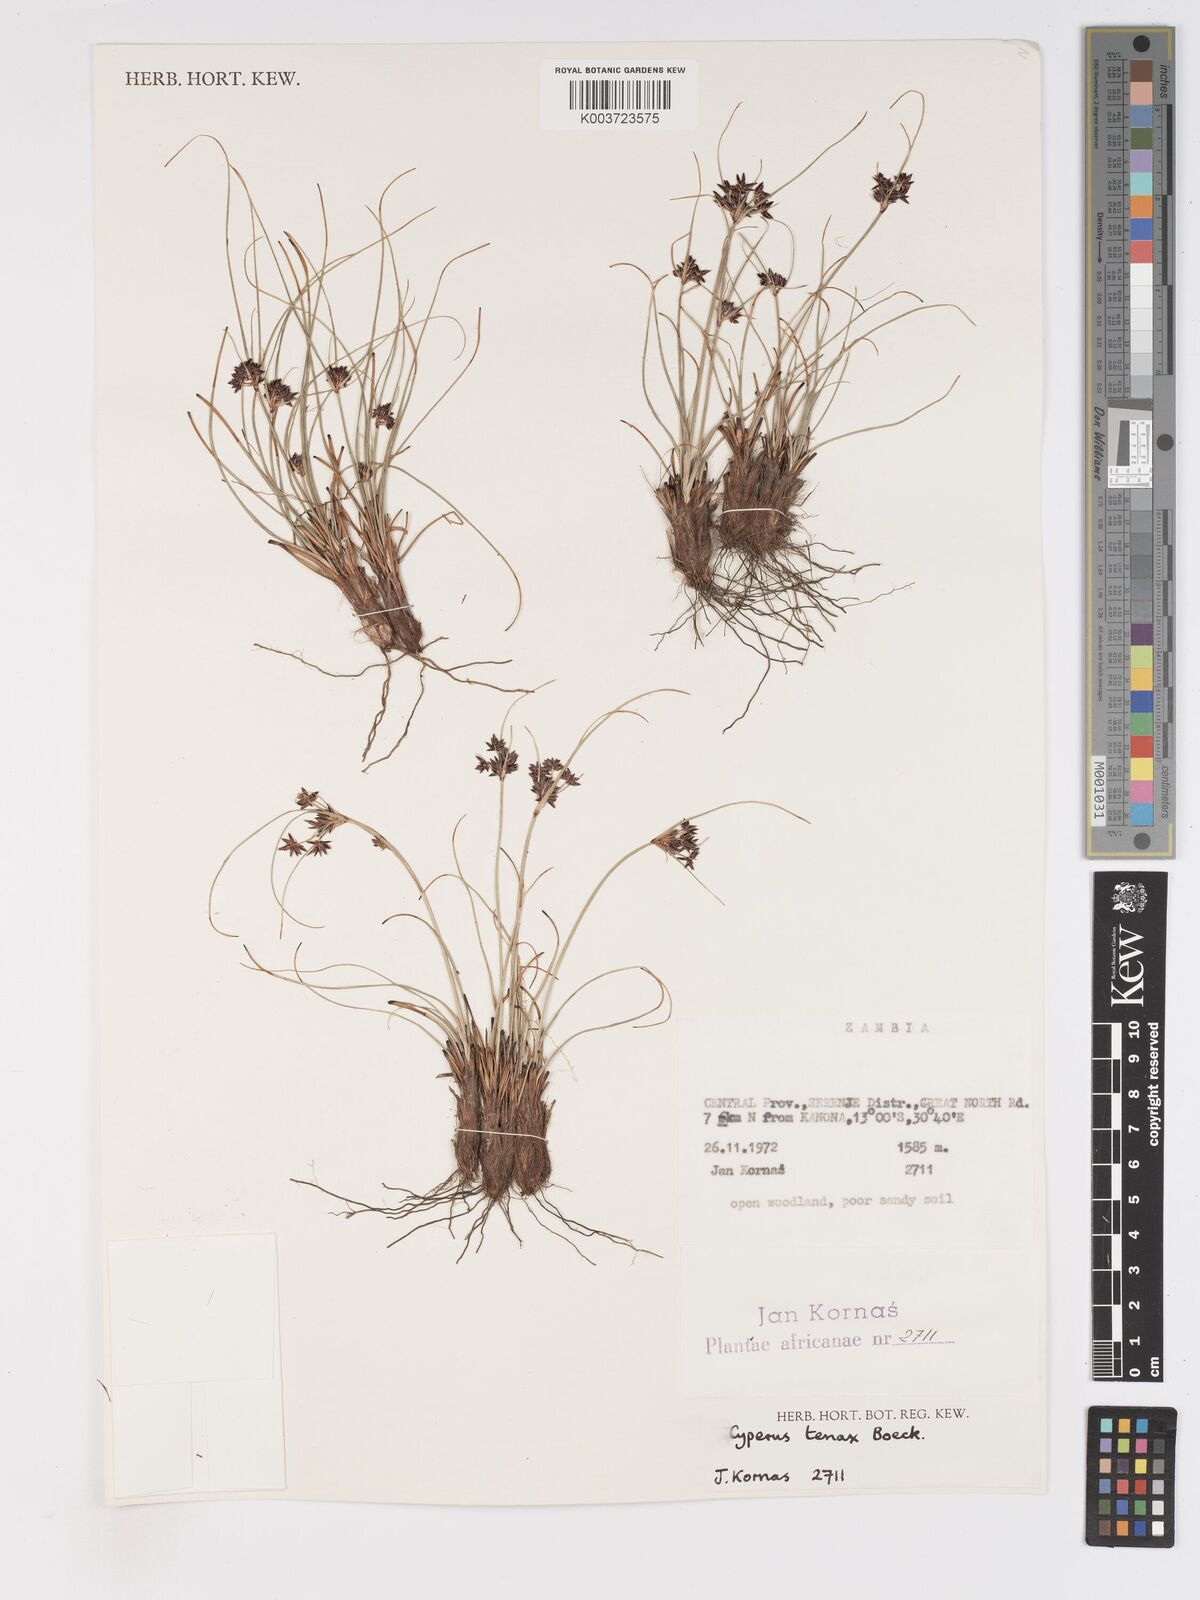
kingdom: Plantae
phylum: Tracheophyta
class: Liliopsida
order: Poales
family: Cyperaceae
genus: Cyperus
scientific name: Cyperus tenax
